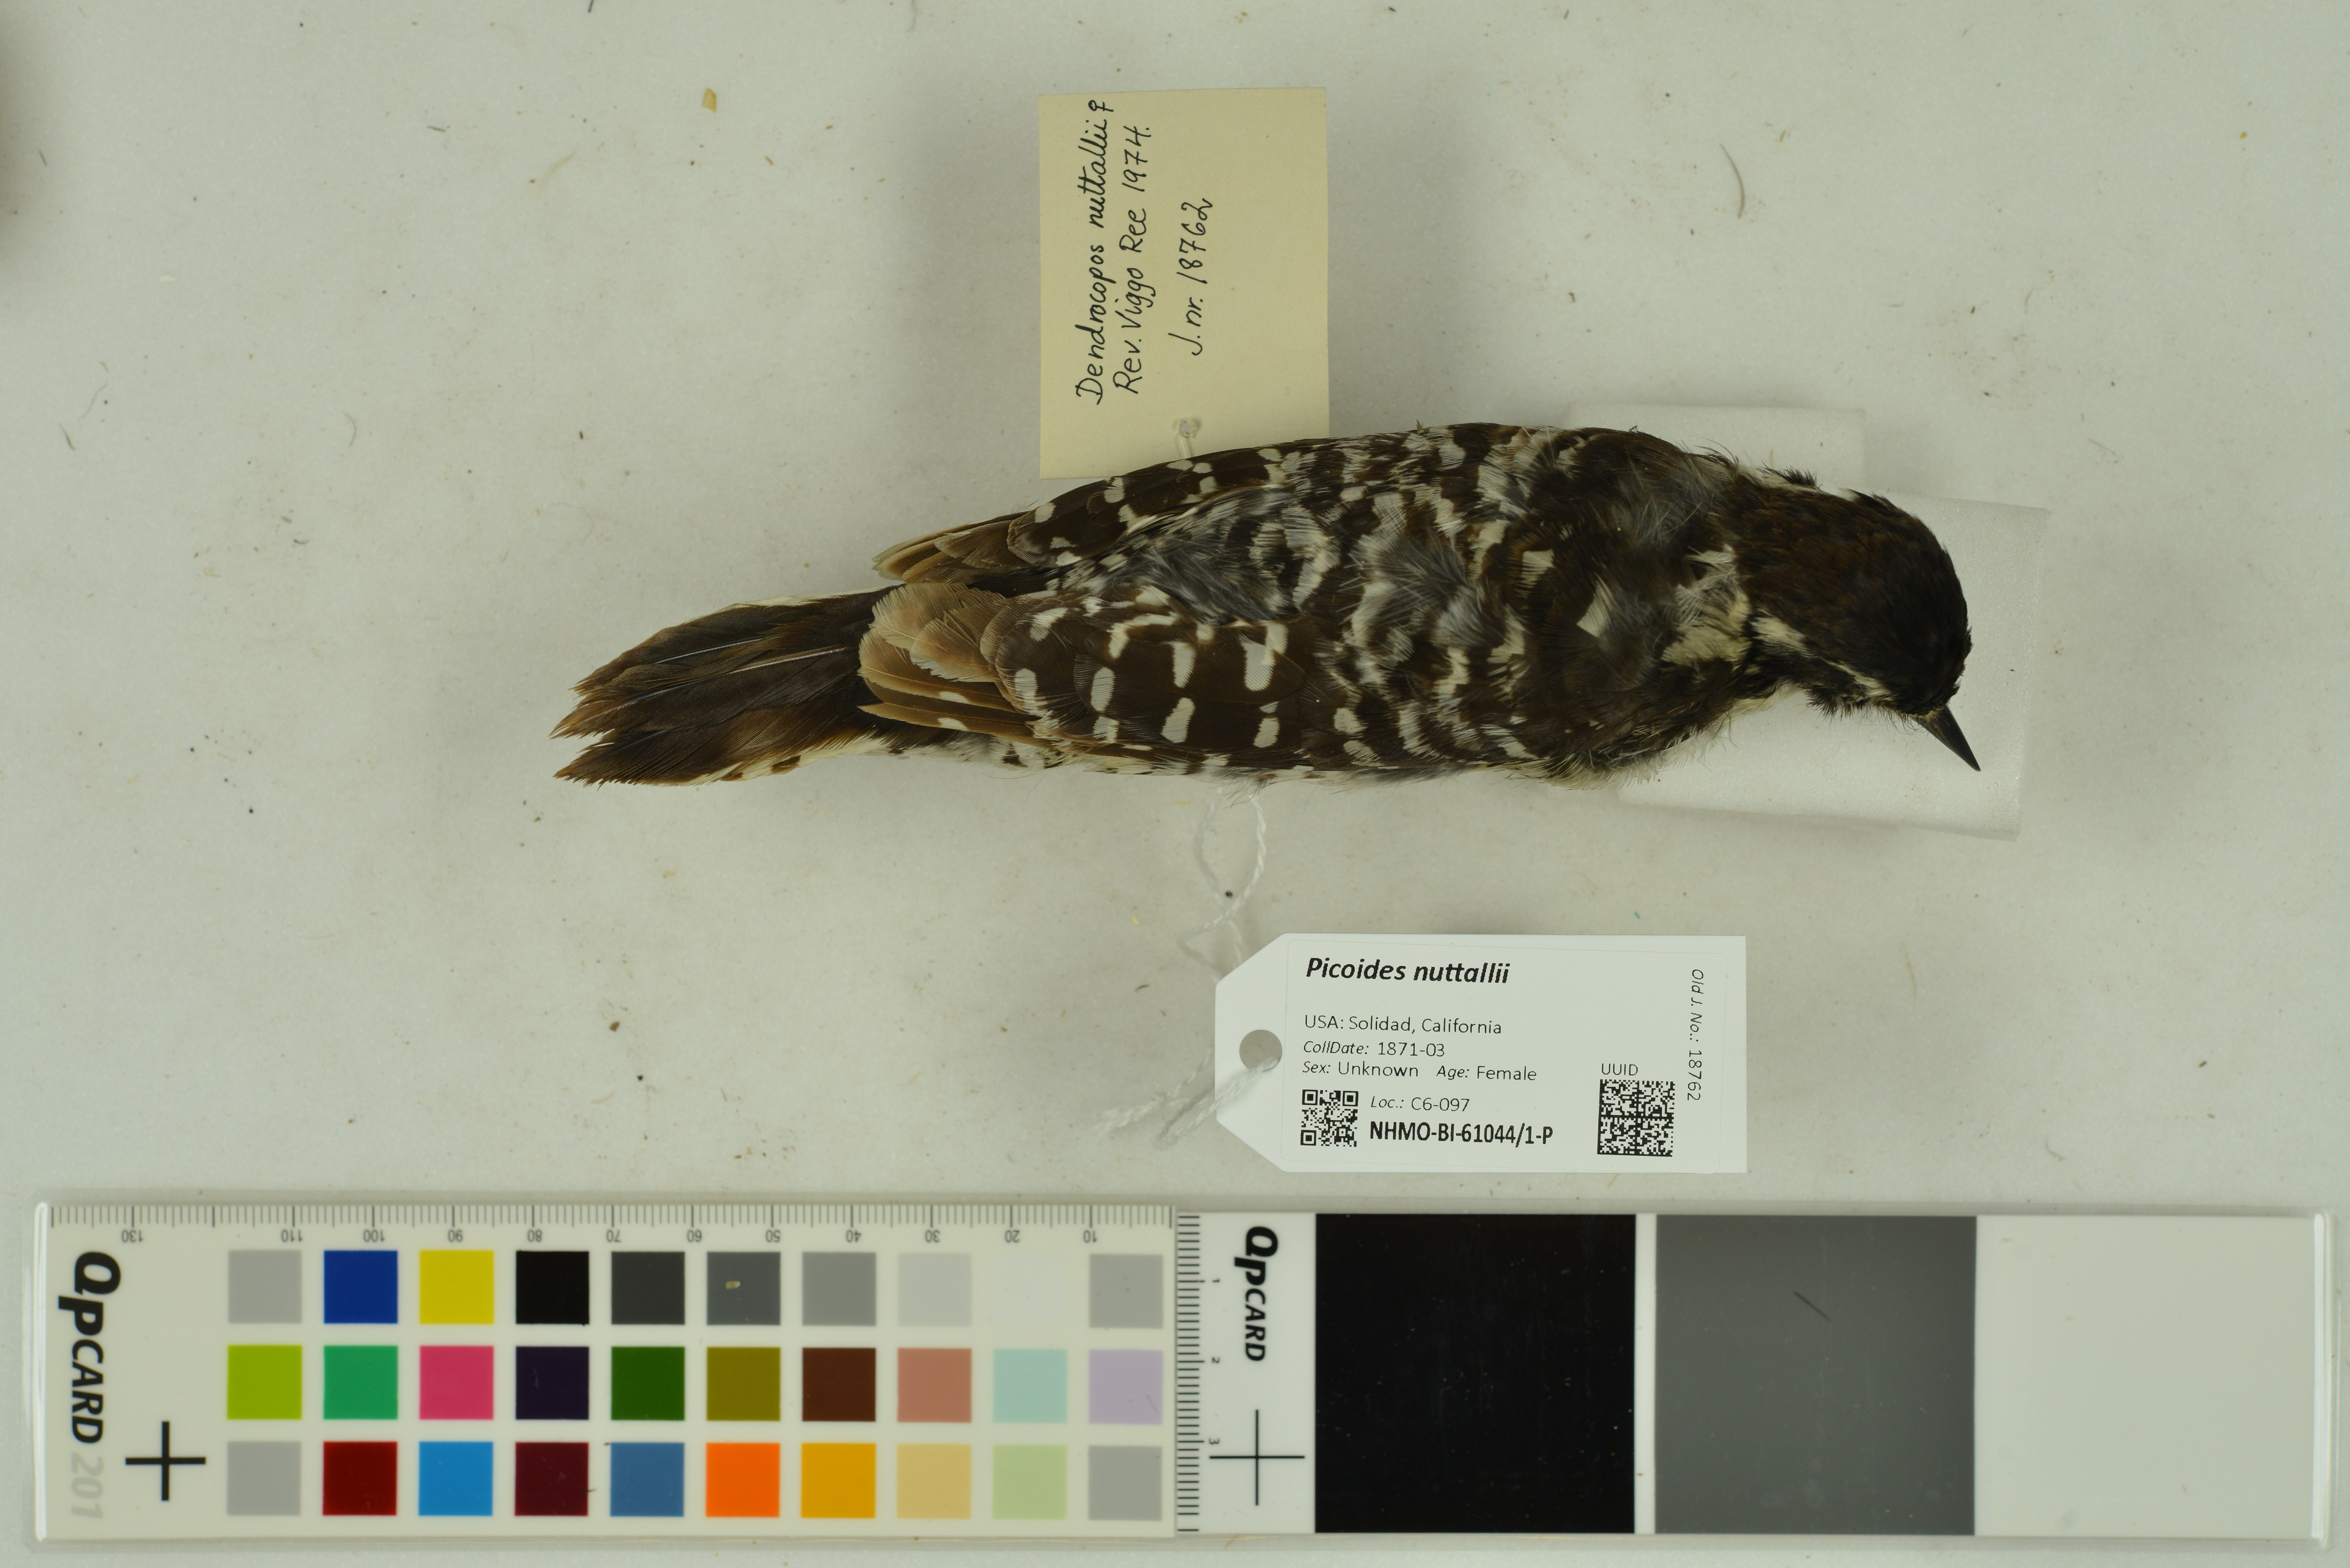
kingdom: Animalia
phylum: Chordata
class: Aves
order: Piciformes
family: Picidae
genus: Dryobates
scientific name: Dryobates nuttallii
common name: Nuttall's woodpecker
